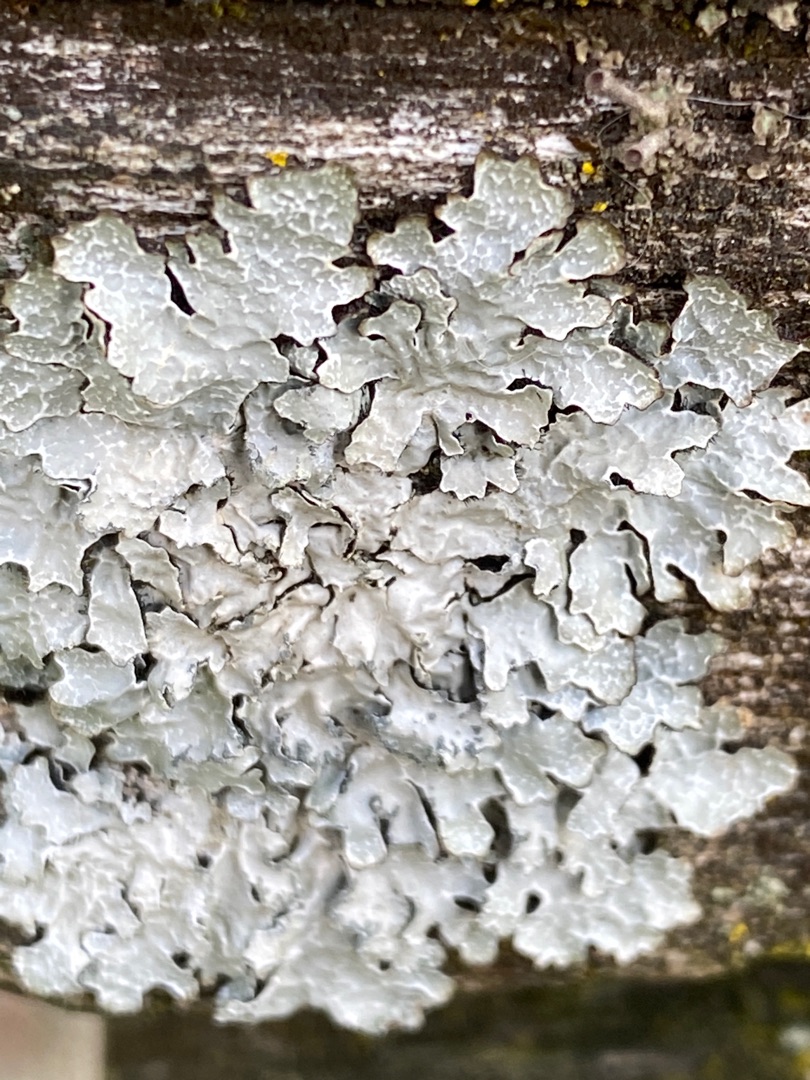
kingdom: Fungi
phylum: Ascomycota
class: Lecanoromycetes
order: Lecanorales
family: Parmeliaceae
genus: Parmelia
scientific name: Parmelia sulcata
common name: Rynket skållav
